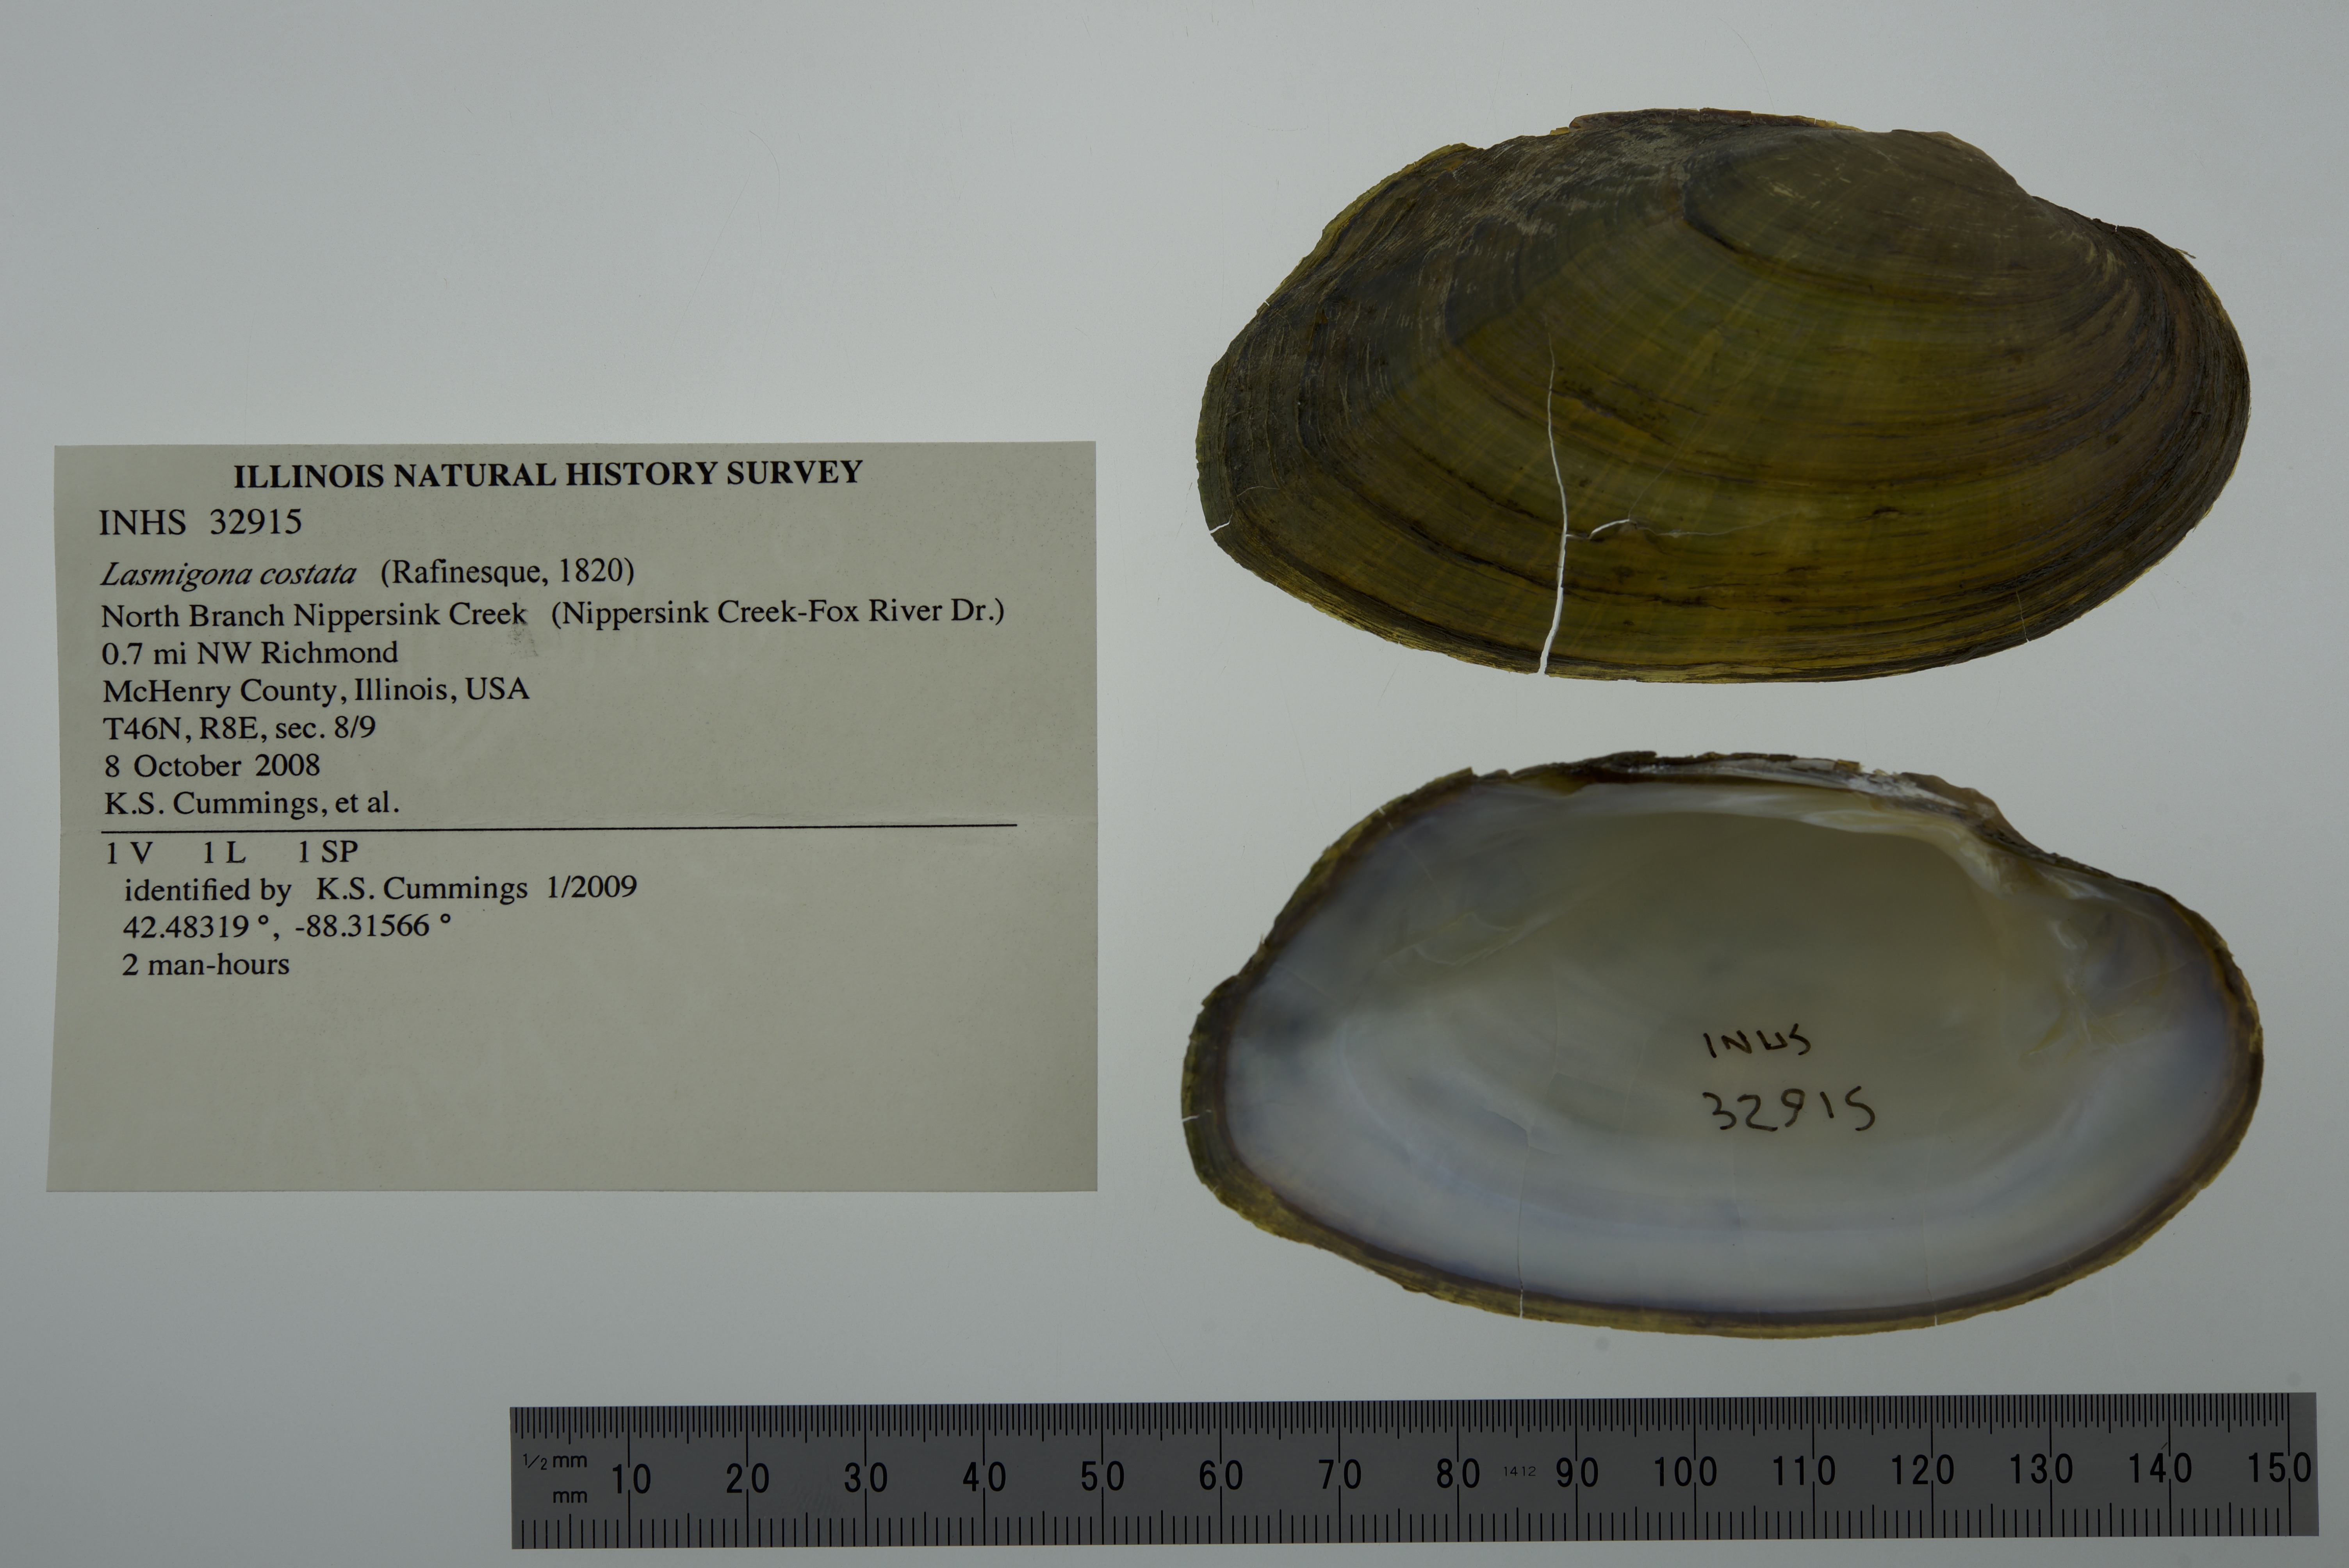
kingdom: Animalia
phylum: Mollusca
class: Bivalvia
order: Unionida
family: Unionidae
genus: Lasmigona
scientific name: Lasmigona costata
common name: Flutedshell
